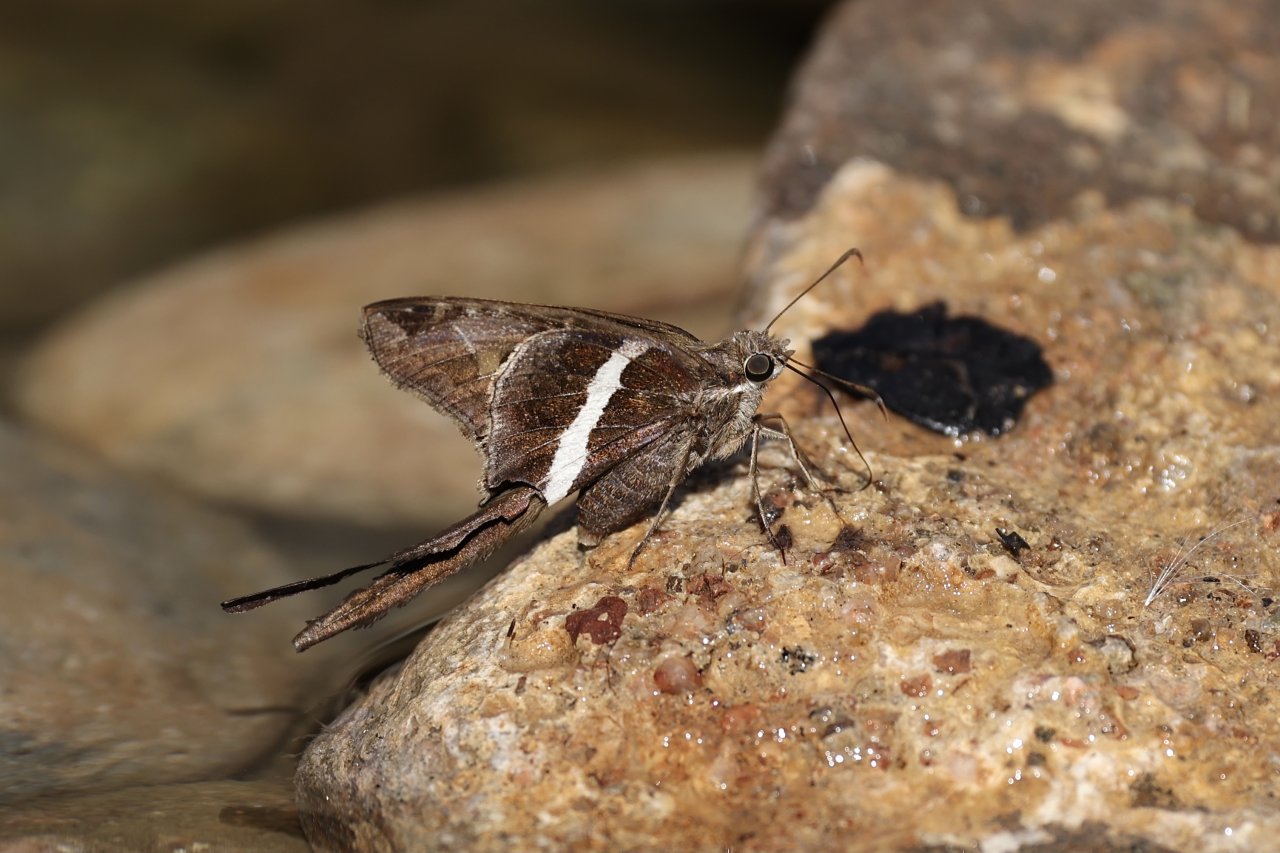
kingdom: Animalia
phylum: Arthropoda
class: Insecta
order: Lepidoptera
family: Hesperiidae
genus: Chioides
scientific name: Chioides catillus
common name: White-striped Longtail
